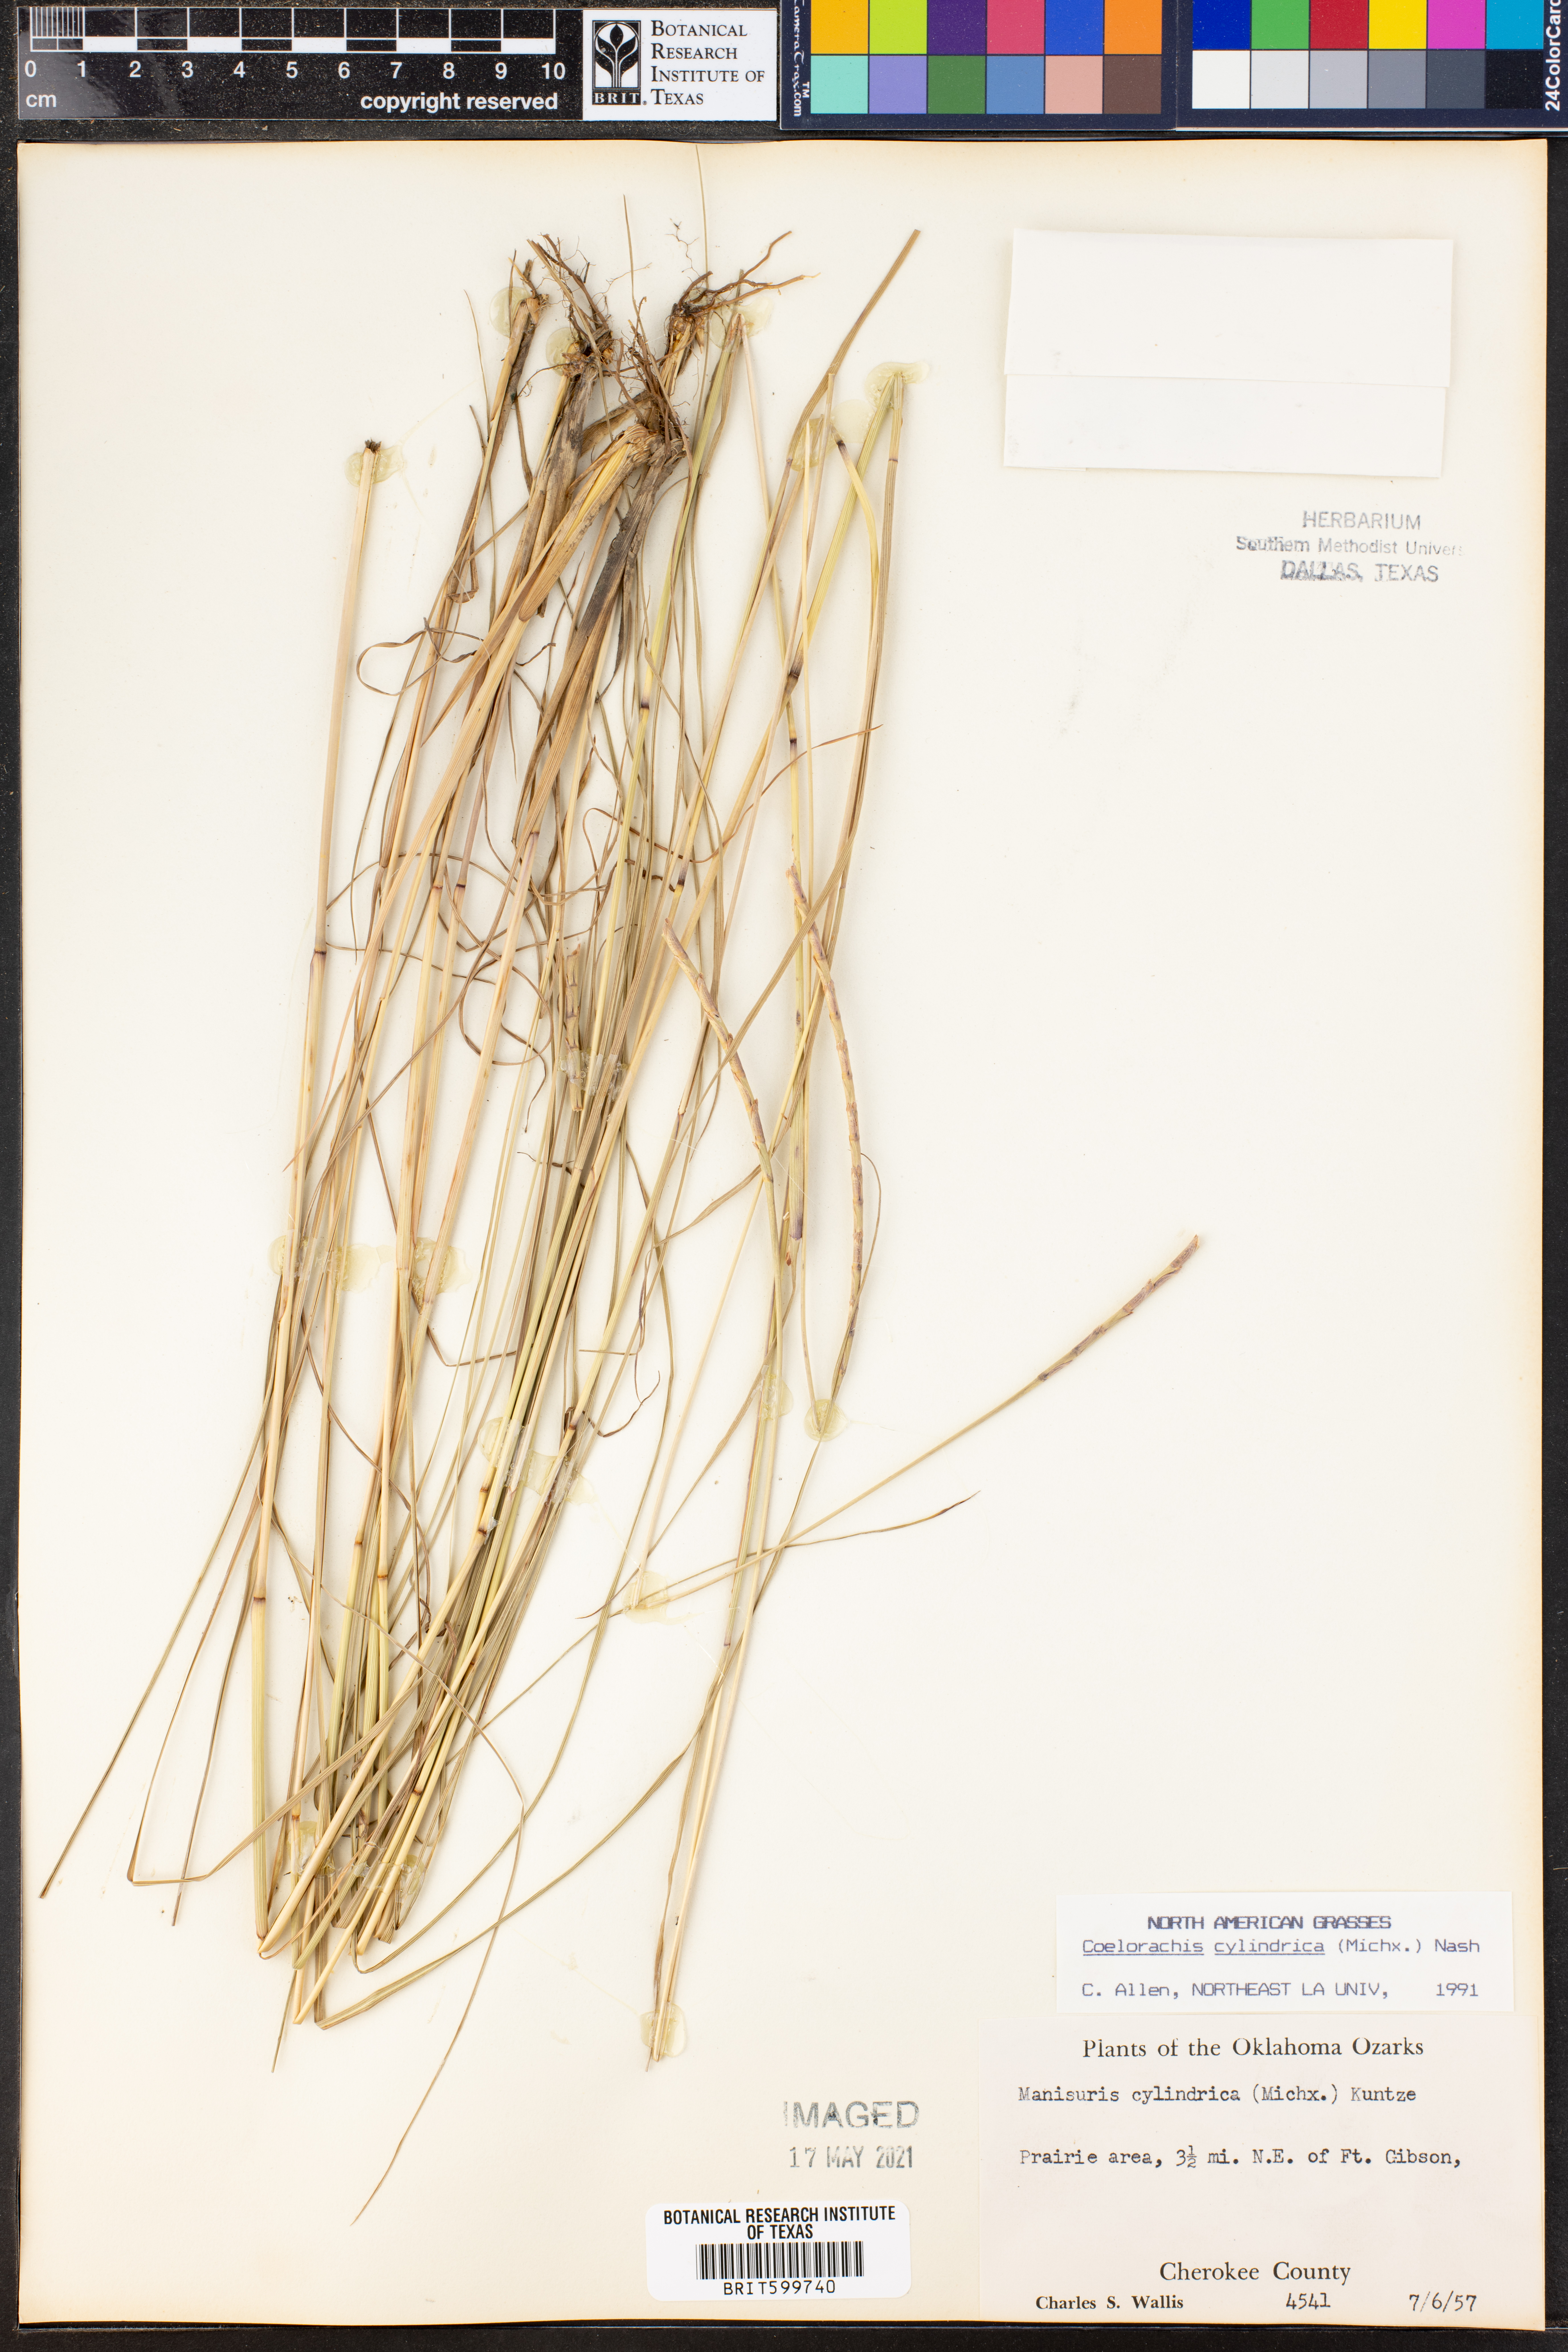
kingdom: Plantae
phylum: Tracheophyta
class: Liliopsida
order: Poales
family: Poaceae
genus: Rottboellia
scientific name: Rottboellia campestris
